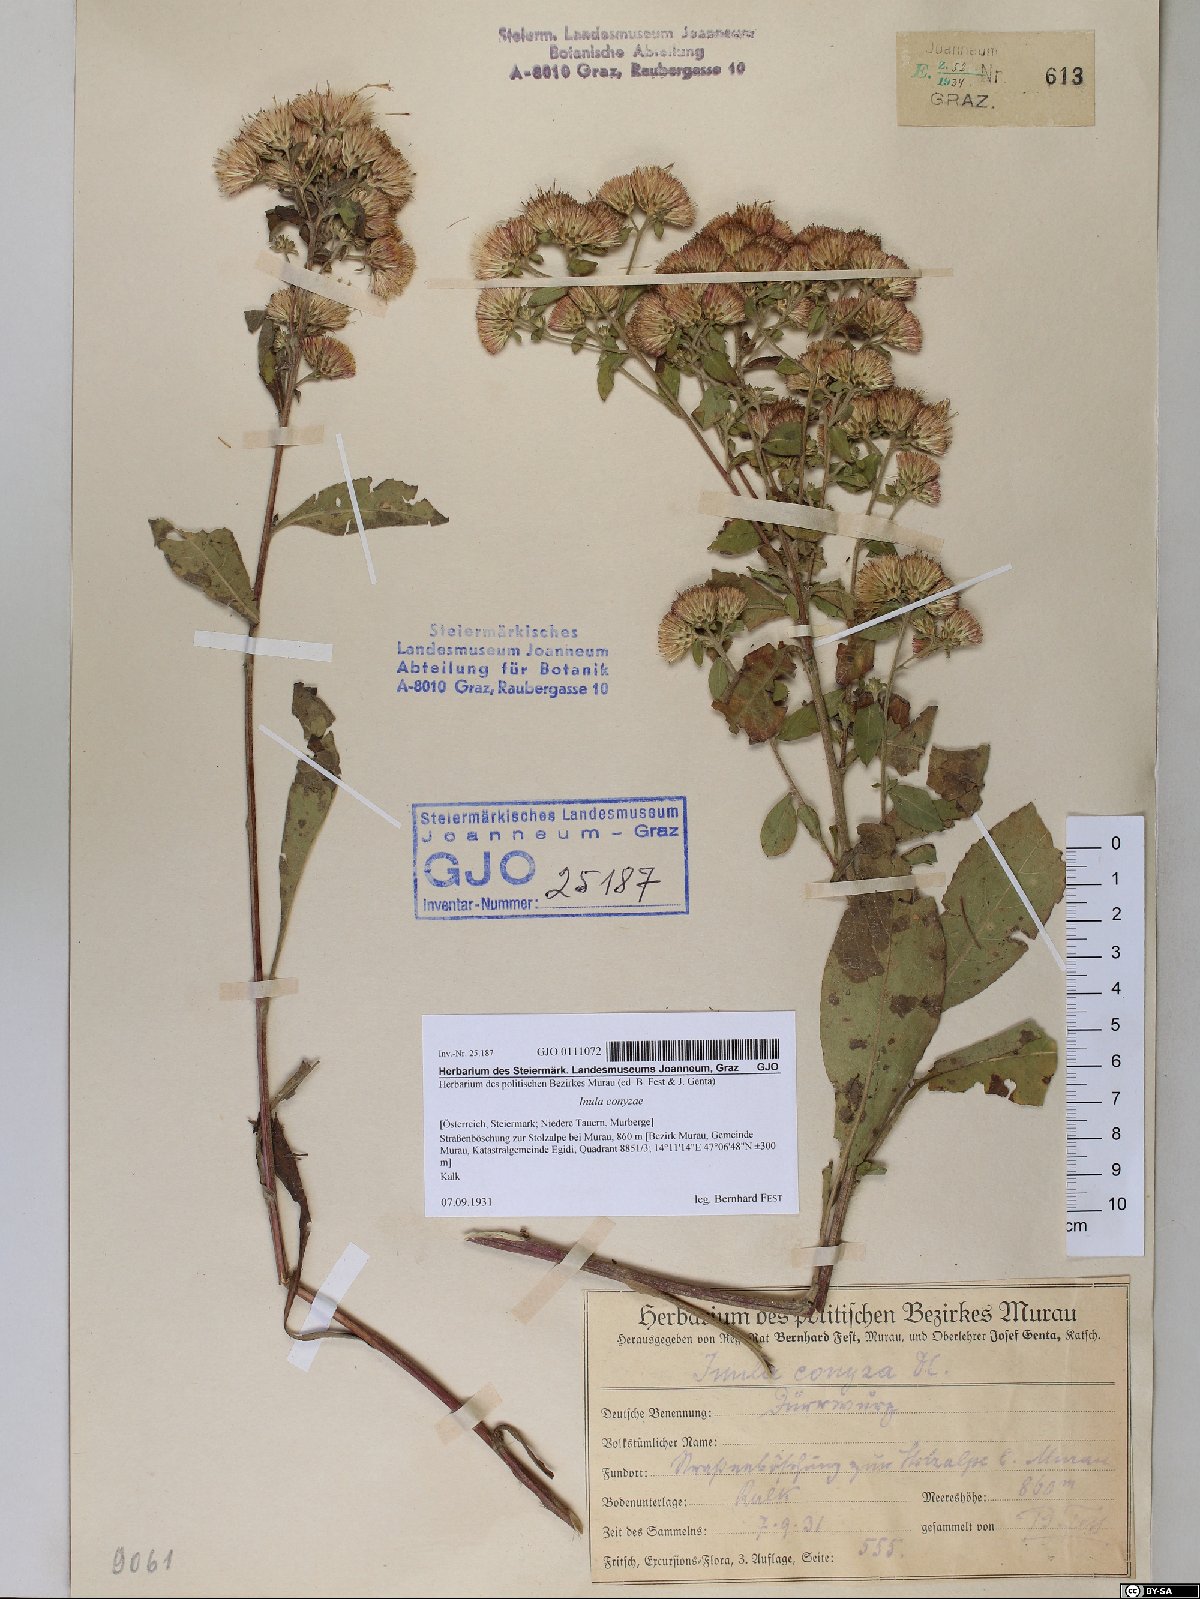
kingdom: Plantae
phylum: Tracheophyta
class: Magnoliopsida
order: Asterales
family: Asteraceae
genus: Pentanema
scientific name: Pentanema squarrosum
